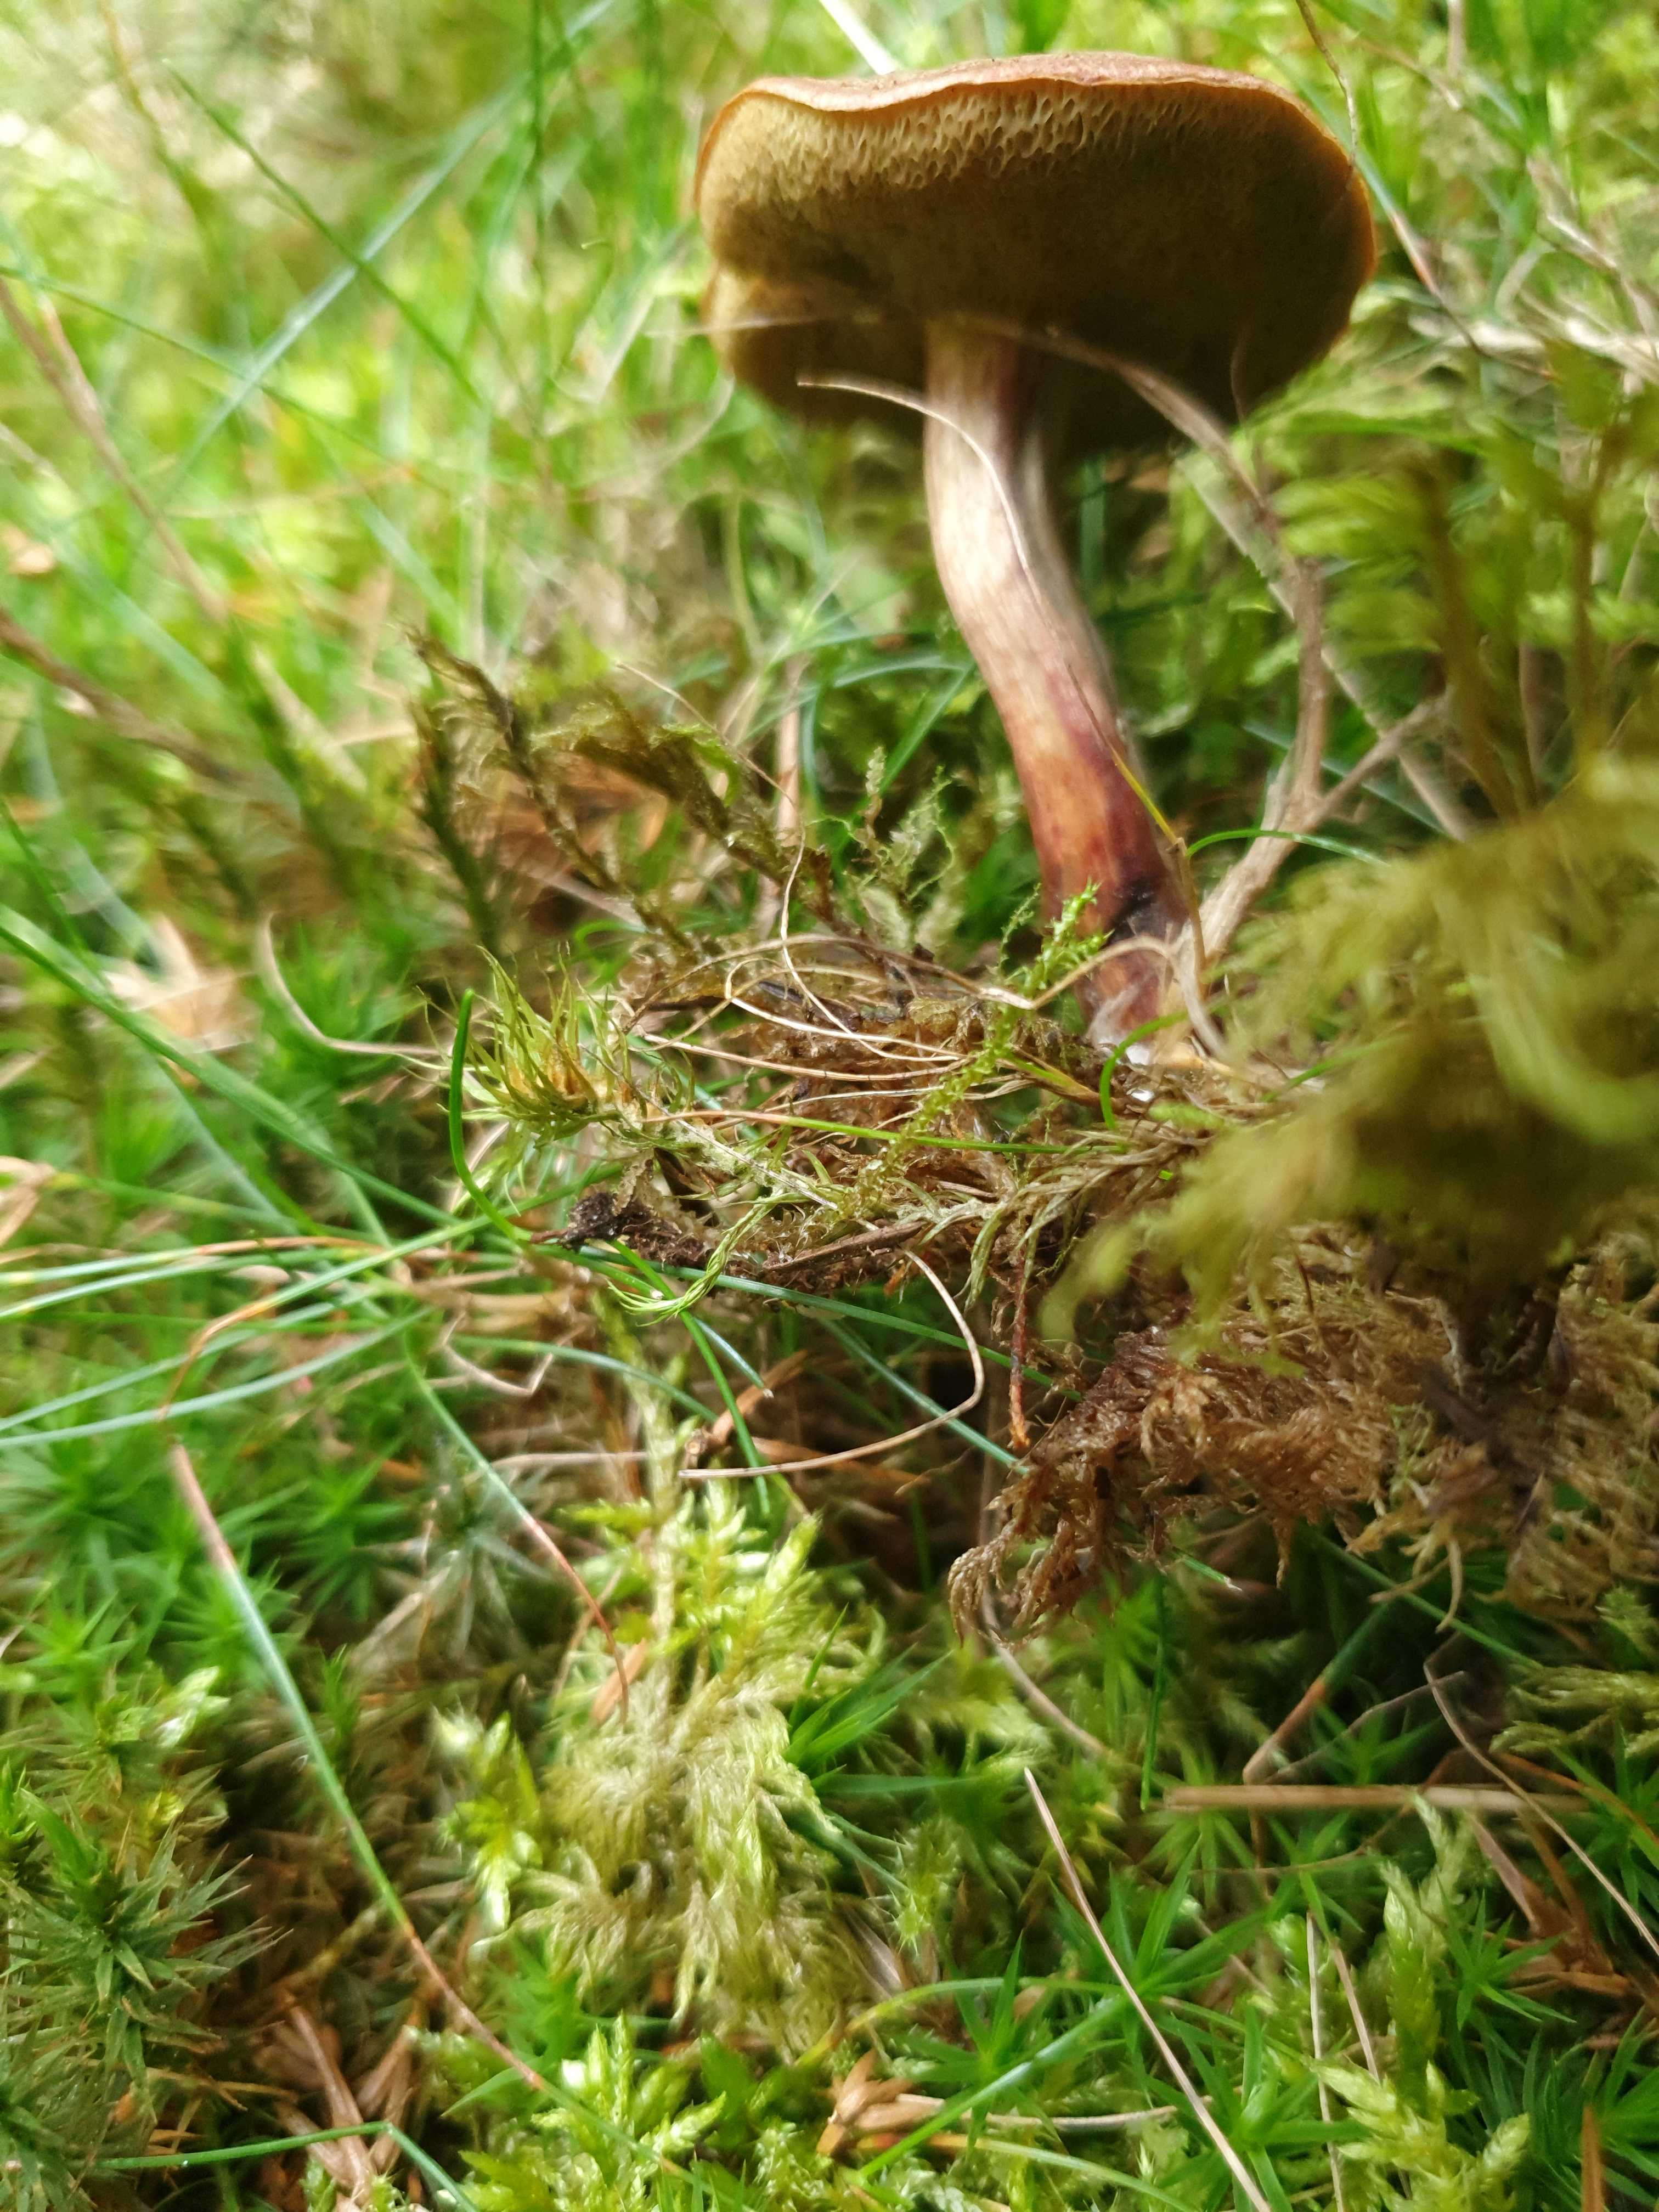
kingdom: Fungi
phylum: Basidiomycota
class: Agaricomycetes
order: Boletales
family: Boletaceae
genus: Xerocomellus
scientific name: Xerocomellus chrysenteron
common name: rødsprukken rørhat
